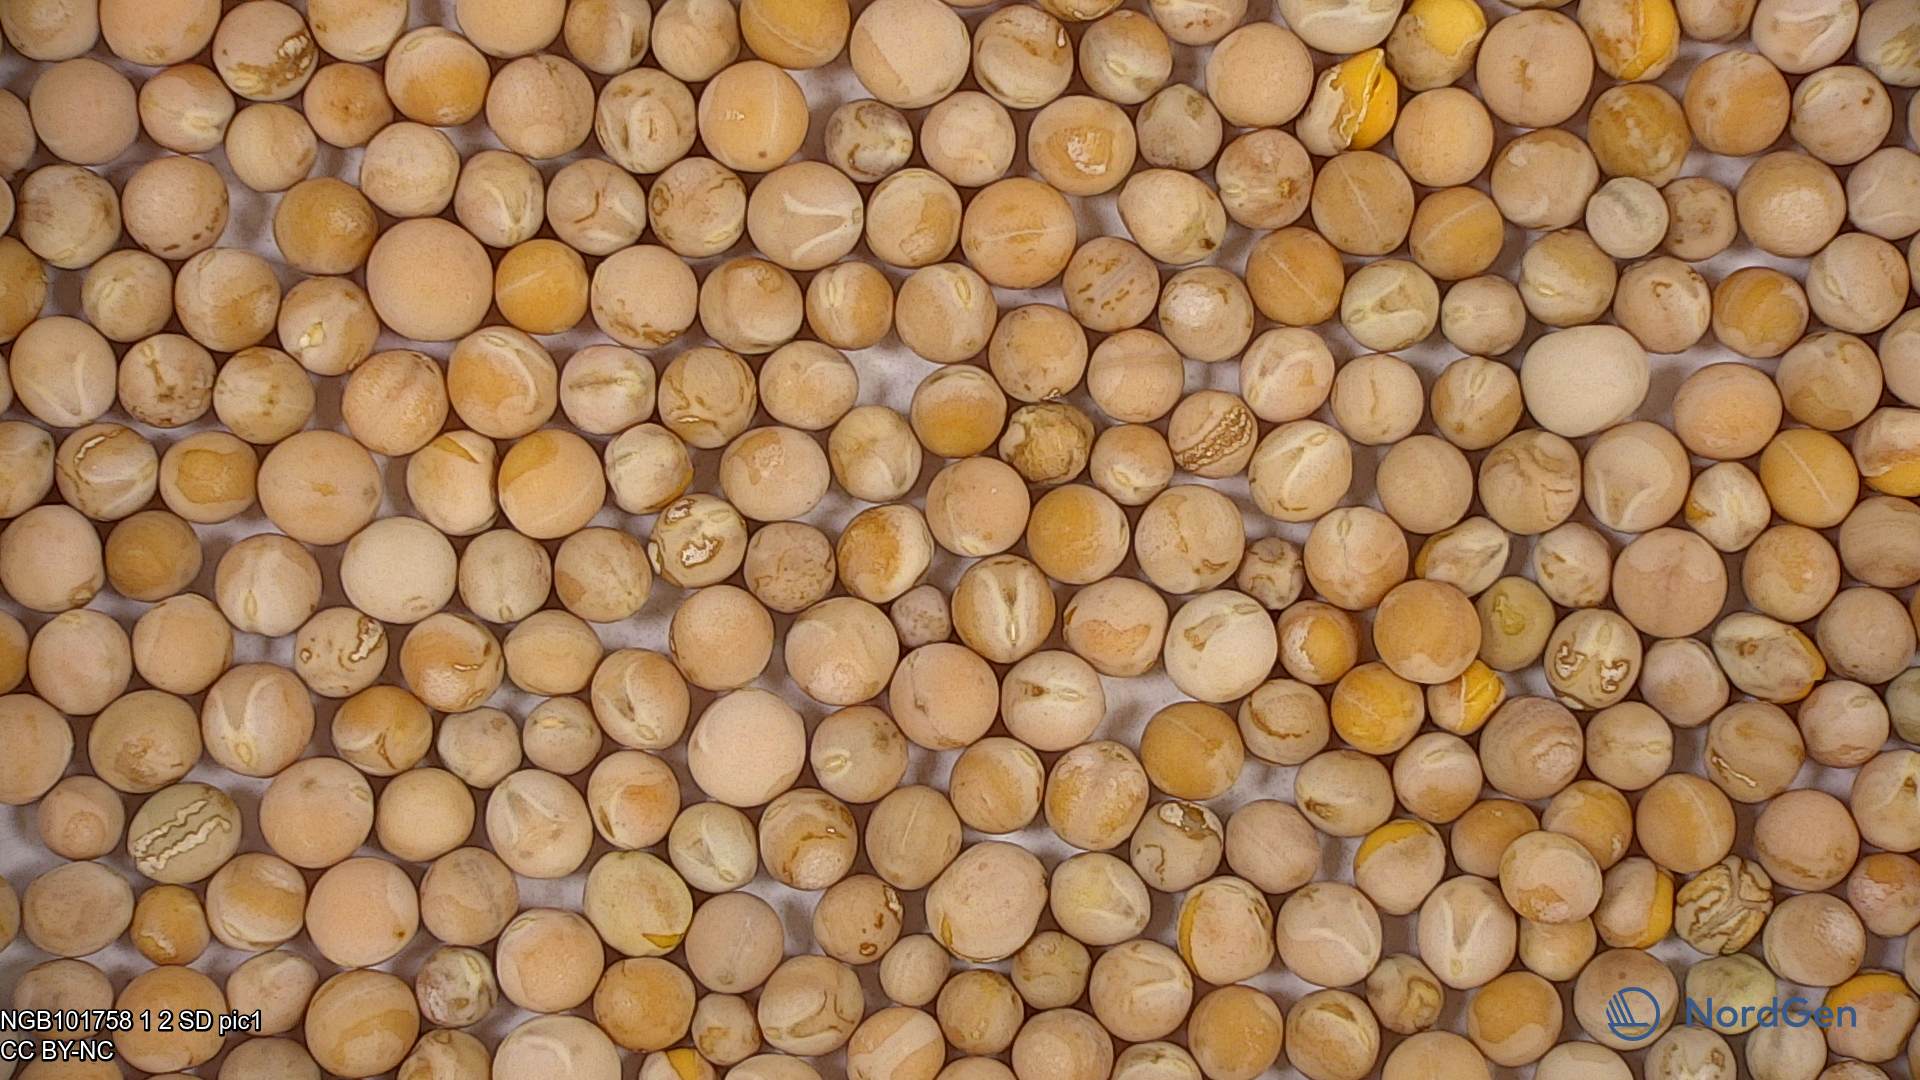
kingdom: Plantae
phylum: Tracheophyta
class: Magnoliopsida
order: Fabales
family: Fabaceae
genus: Lathyrus
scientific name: Lathyrus oleraceus
